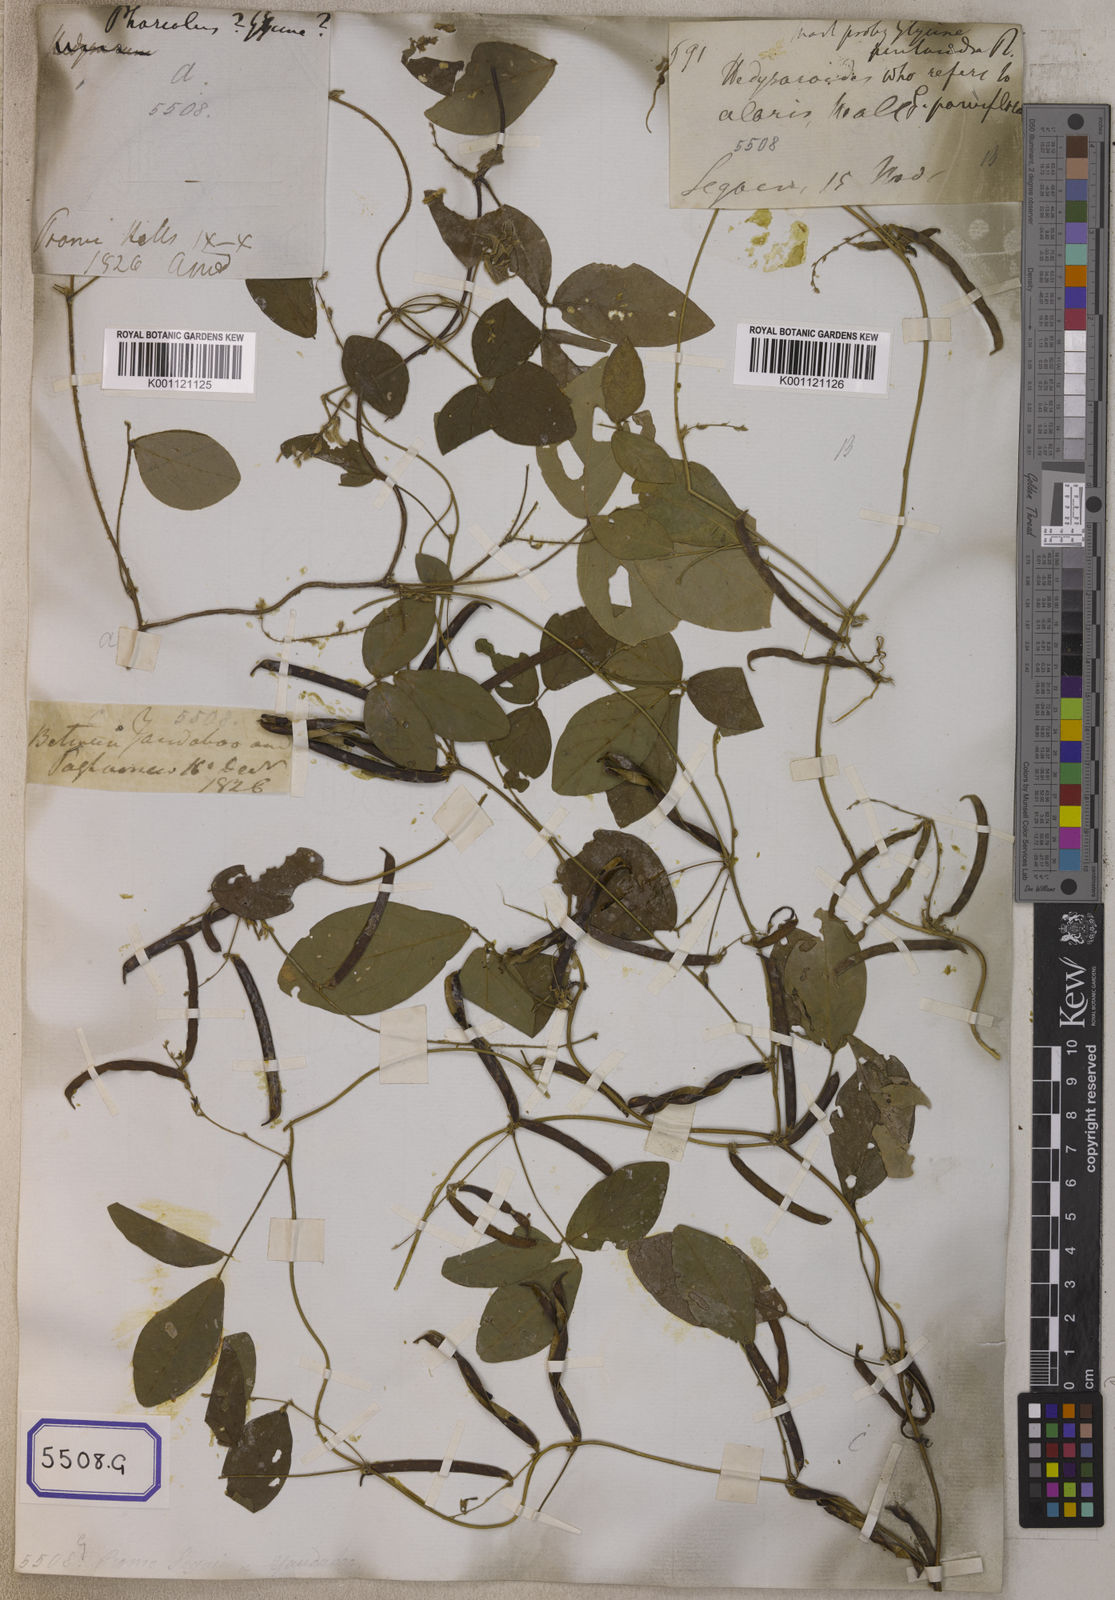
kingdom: Plantae
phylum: Tracheophyta
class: Magnoliopsida
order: Fabales
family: Fabaceae
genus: Teramnus
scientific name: Teramnus labialis
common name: Blue wiss
